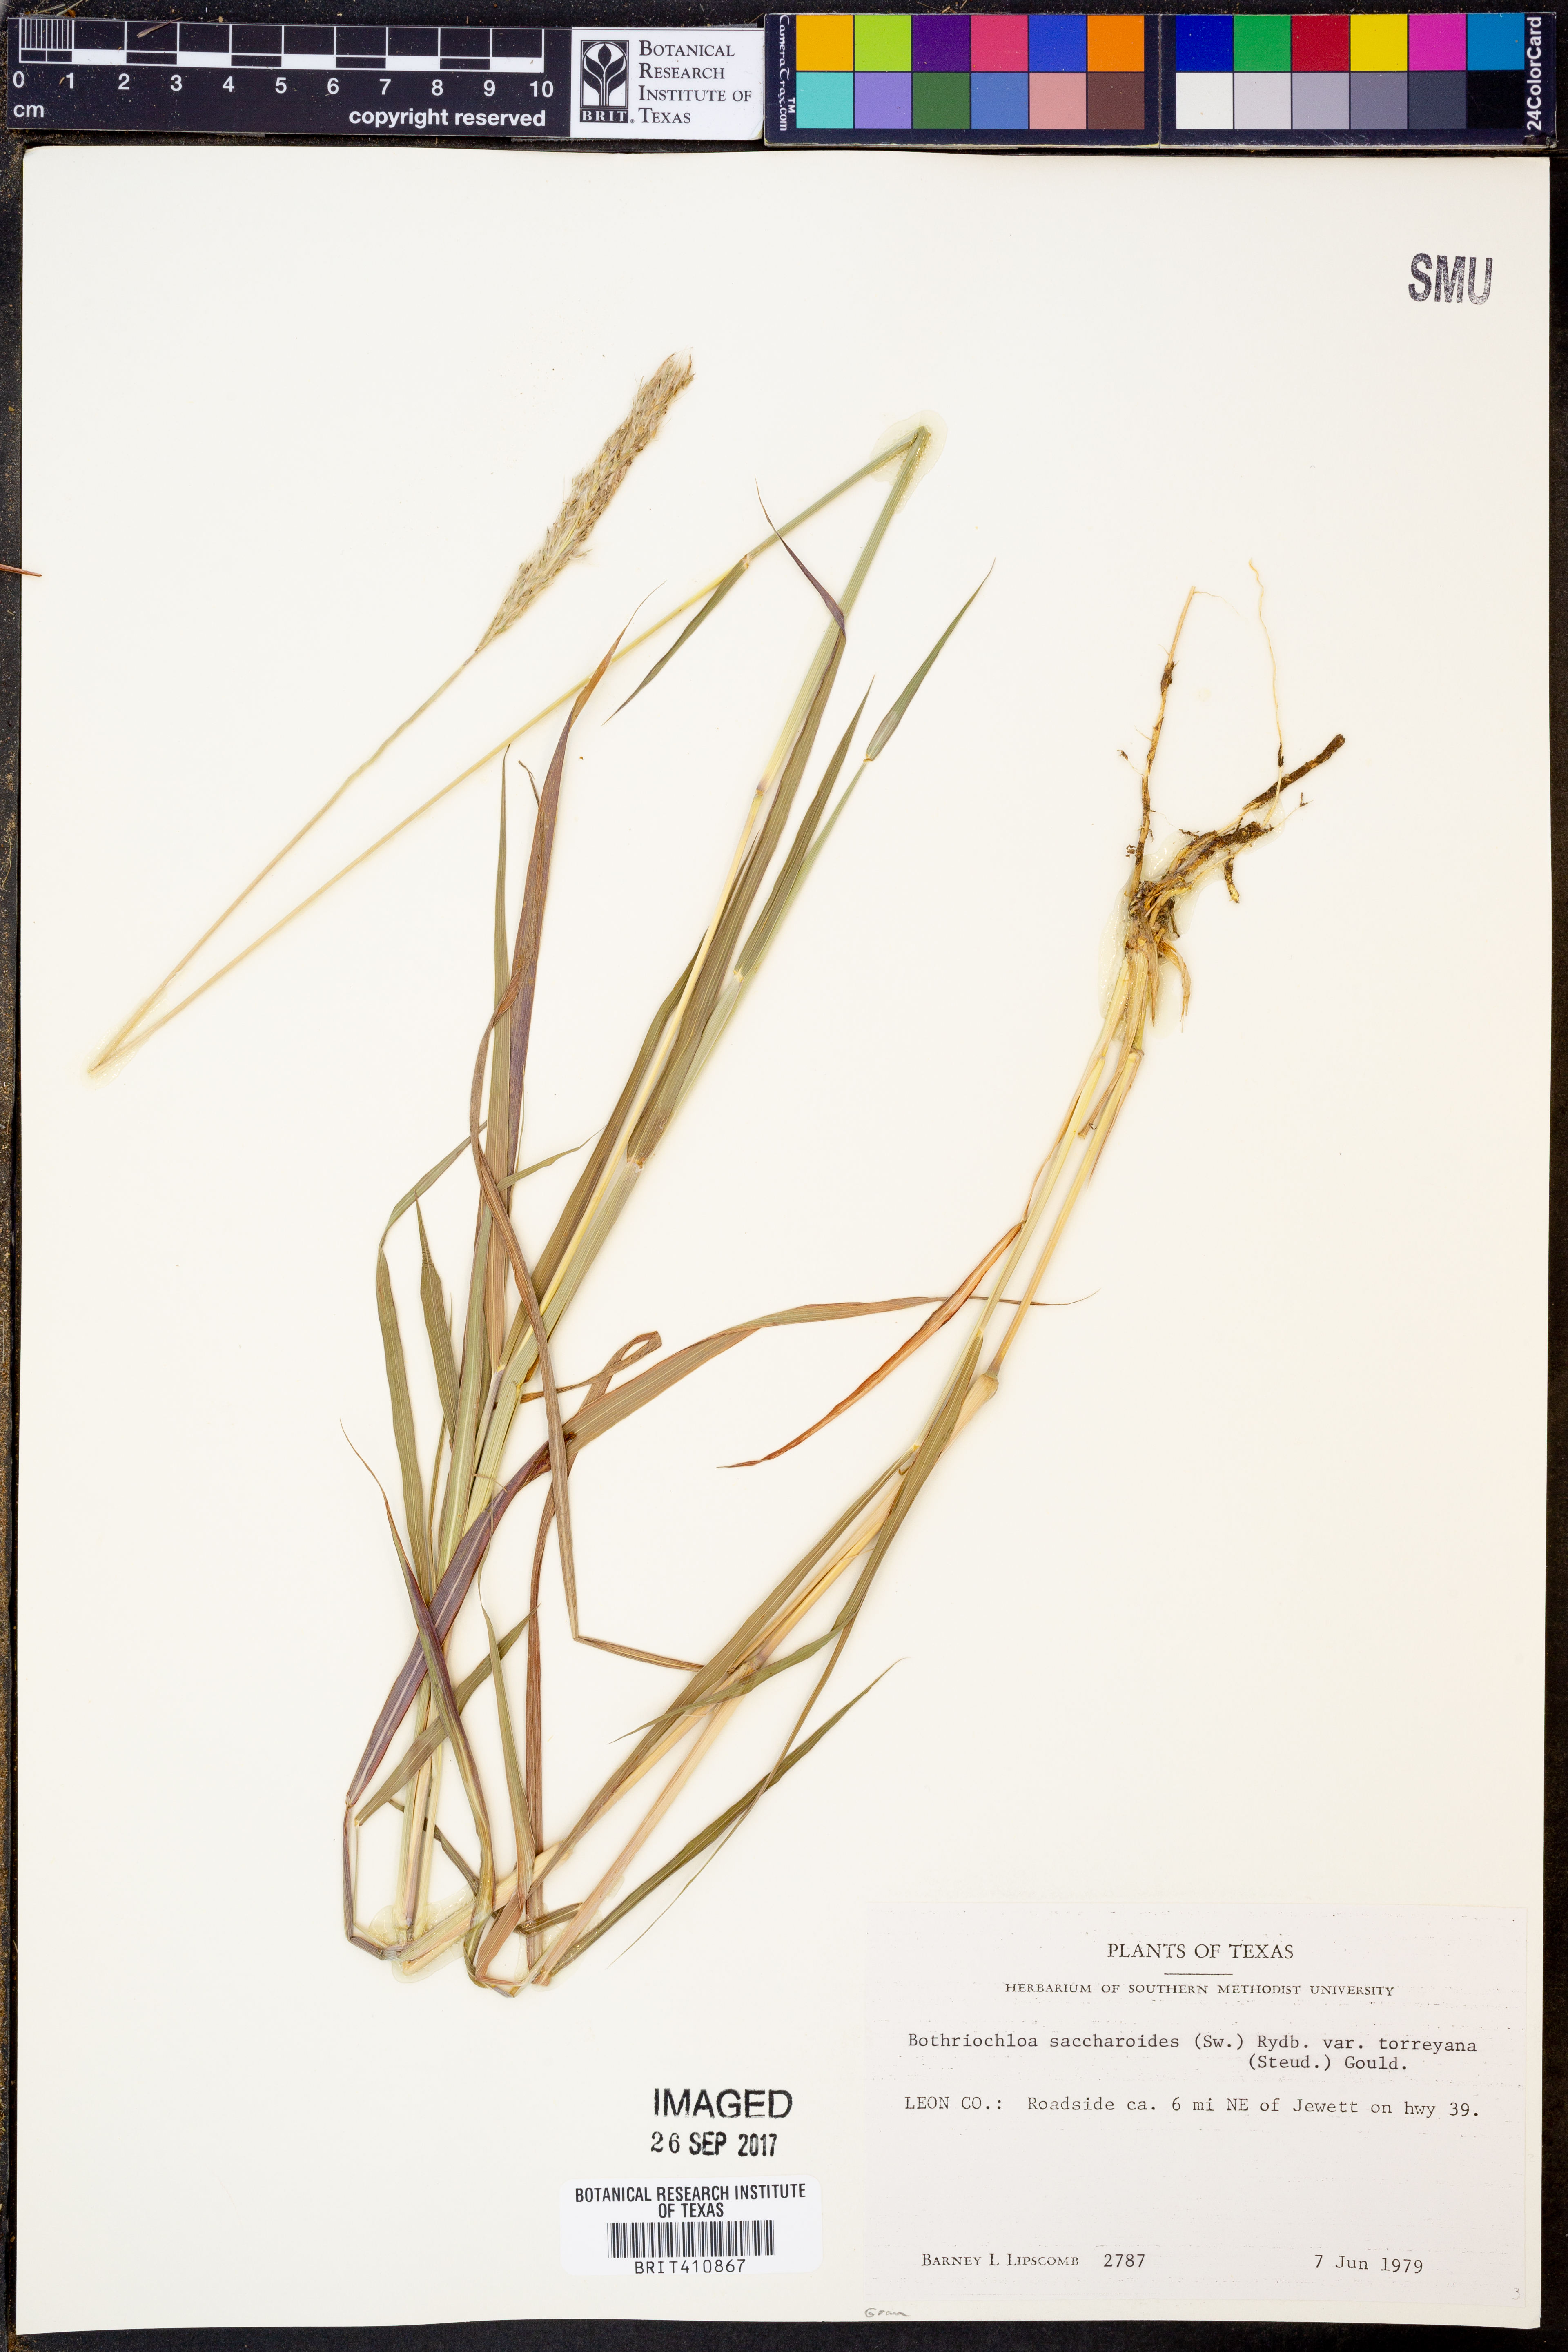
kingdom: Plantae
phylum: Tracheophyta
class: Liliopsida
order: Poales
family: Poaceae
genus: Bothriochloa
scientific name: Bothriochloa torreyana
